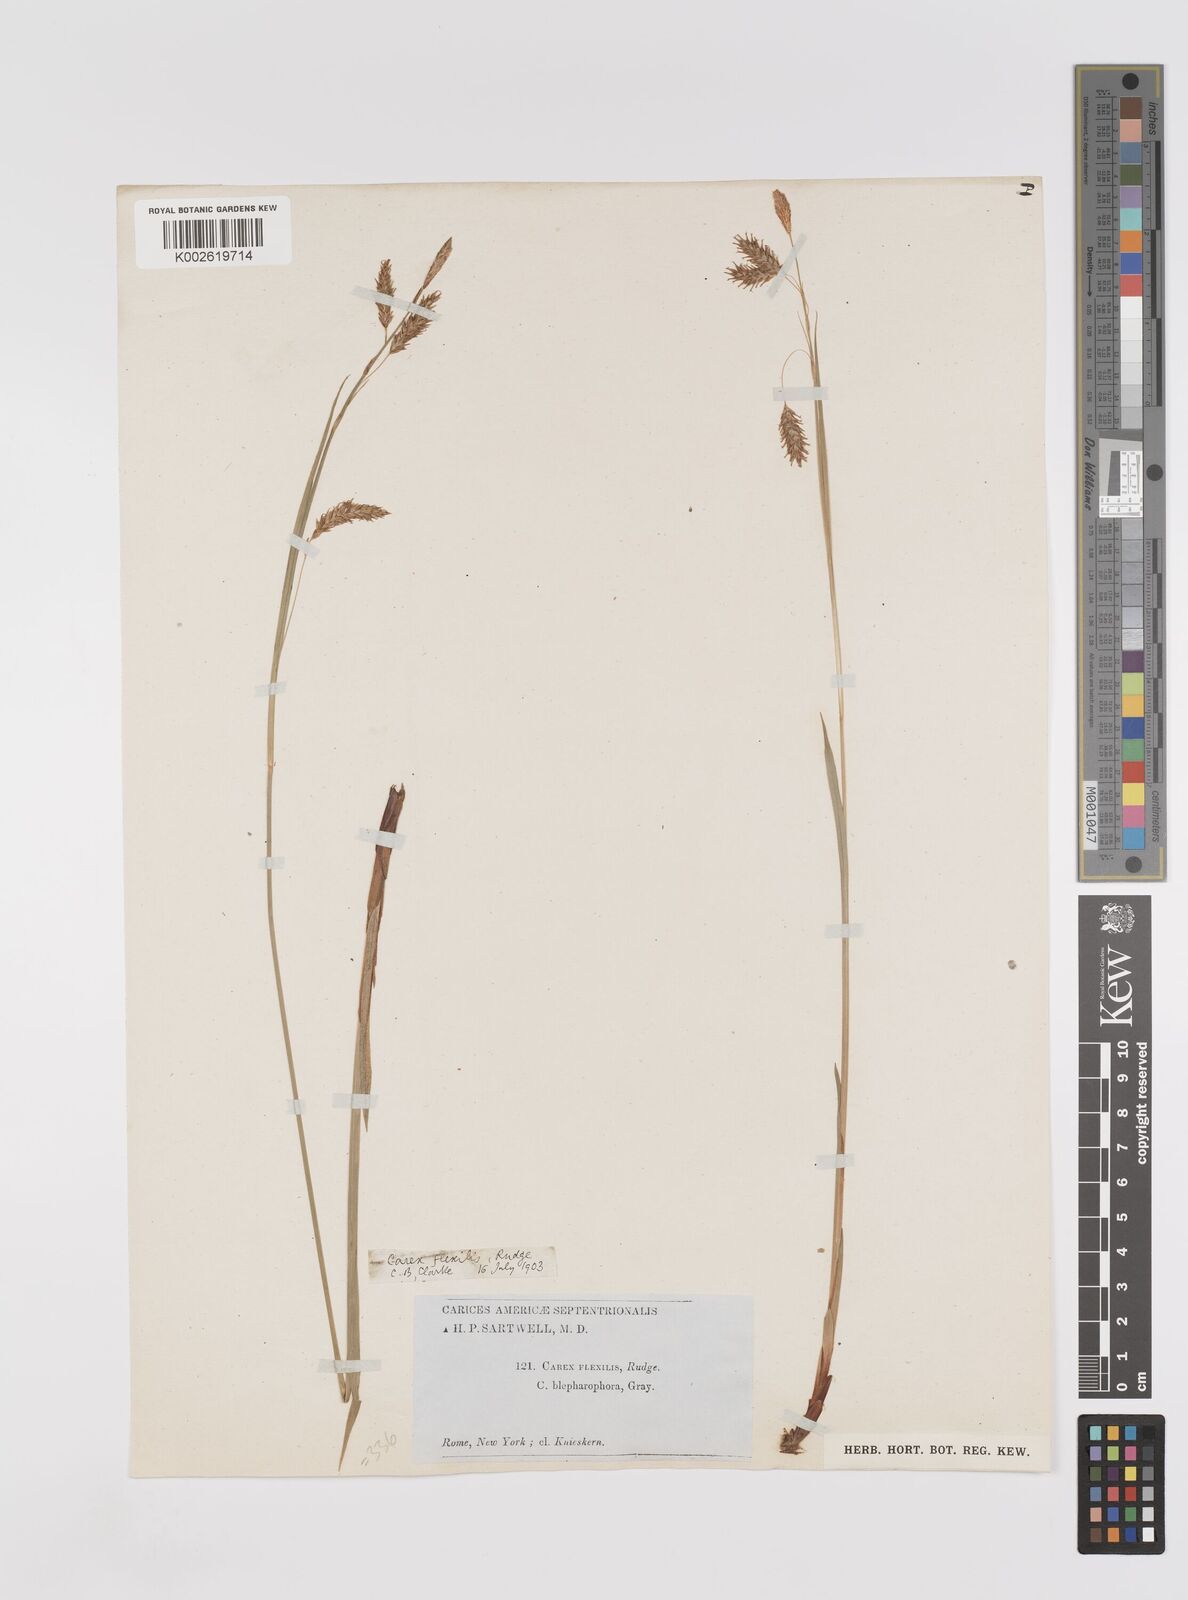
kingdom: Plantae
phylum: Tracheophyta
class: Liliopsida
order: Poales
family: Cyperaceae
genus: Carex
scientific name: Carex castanea
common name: Chestnut sedge
